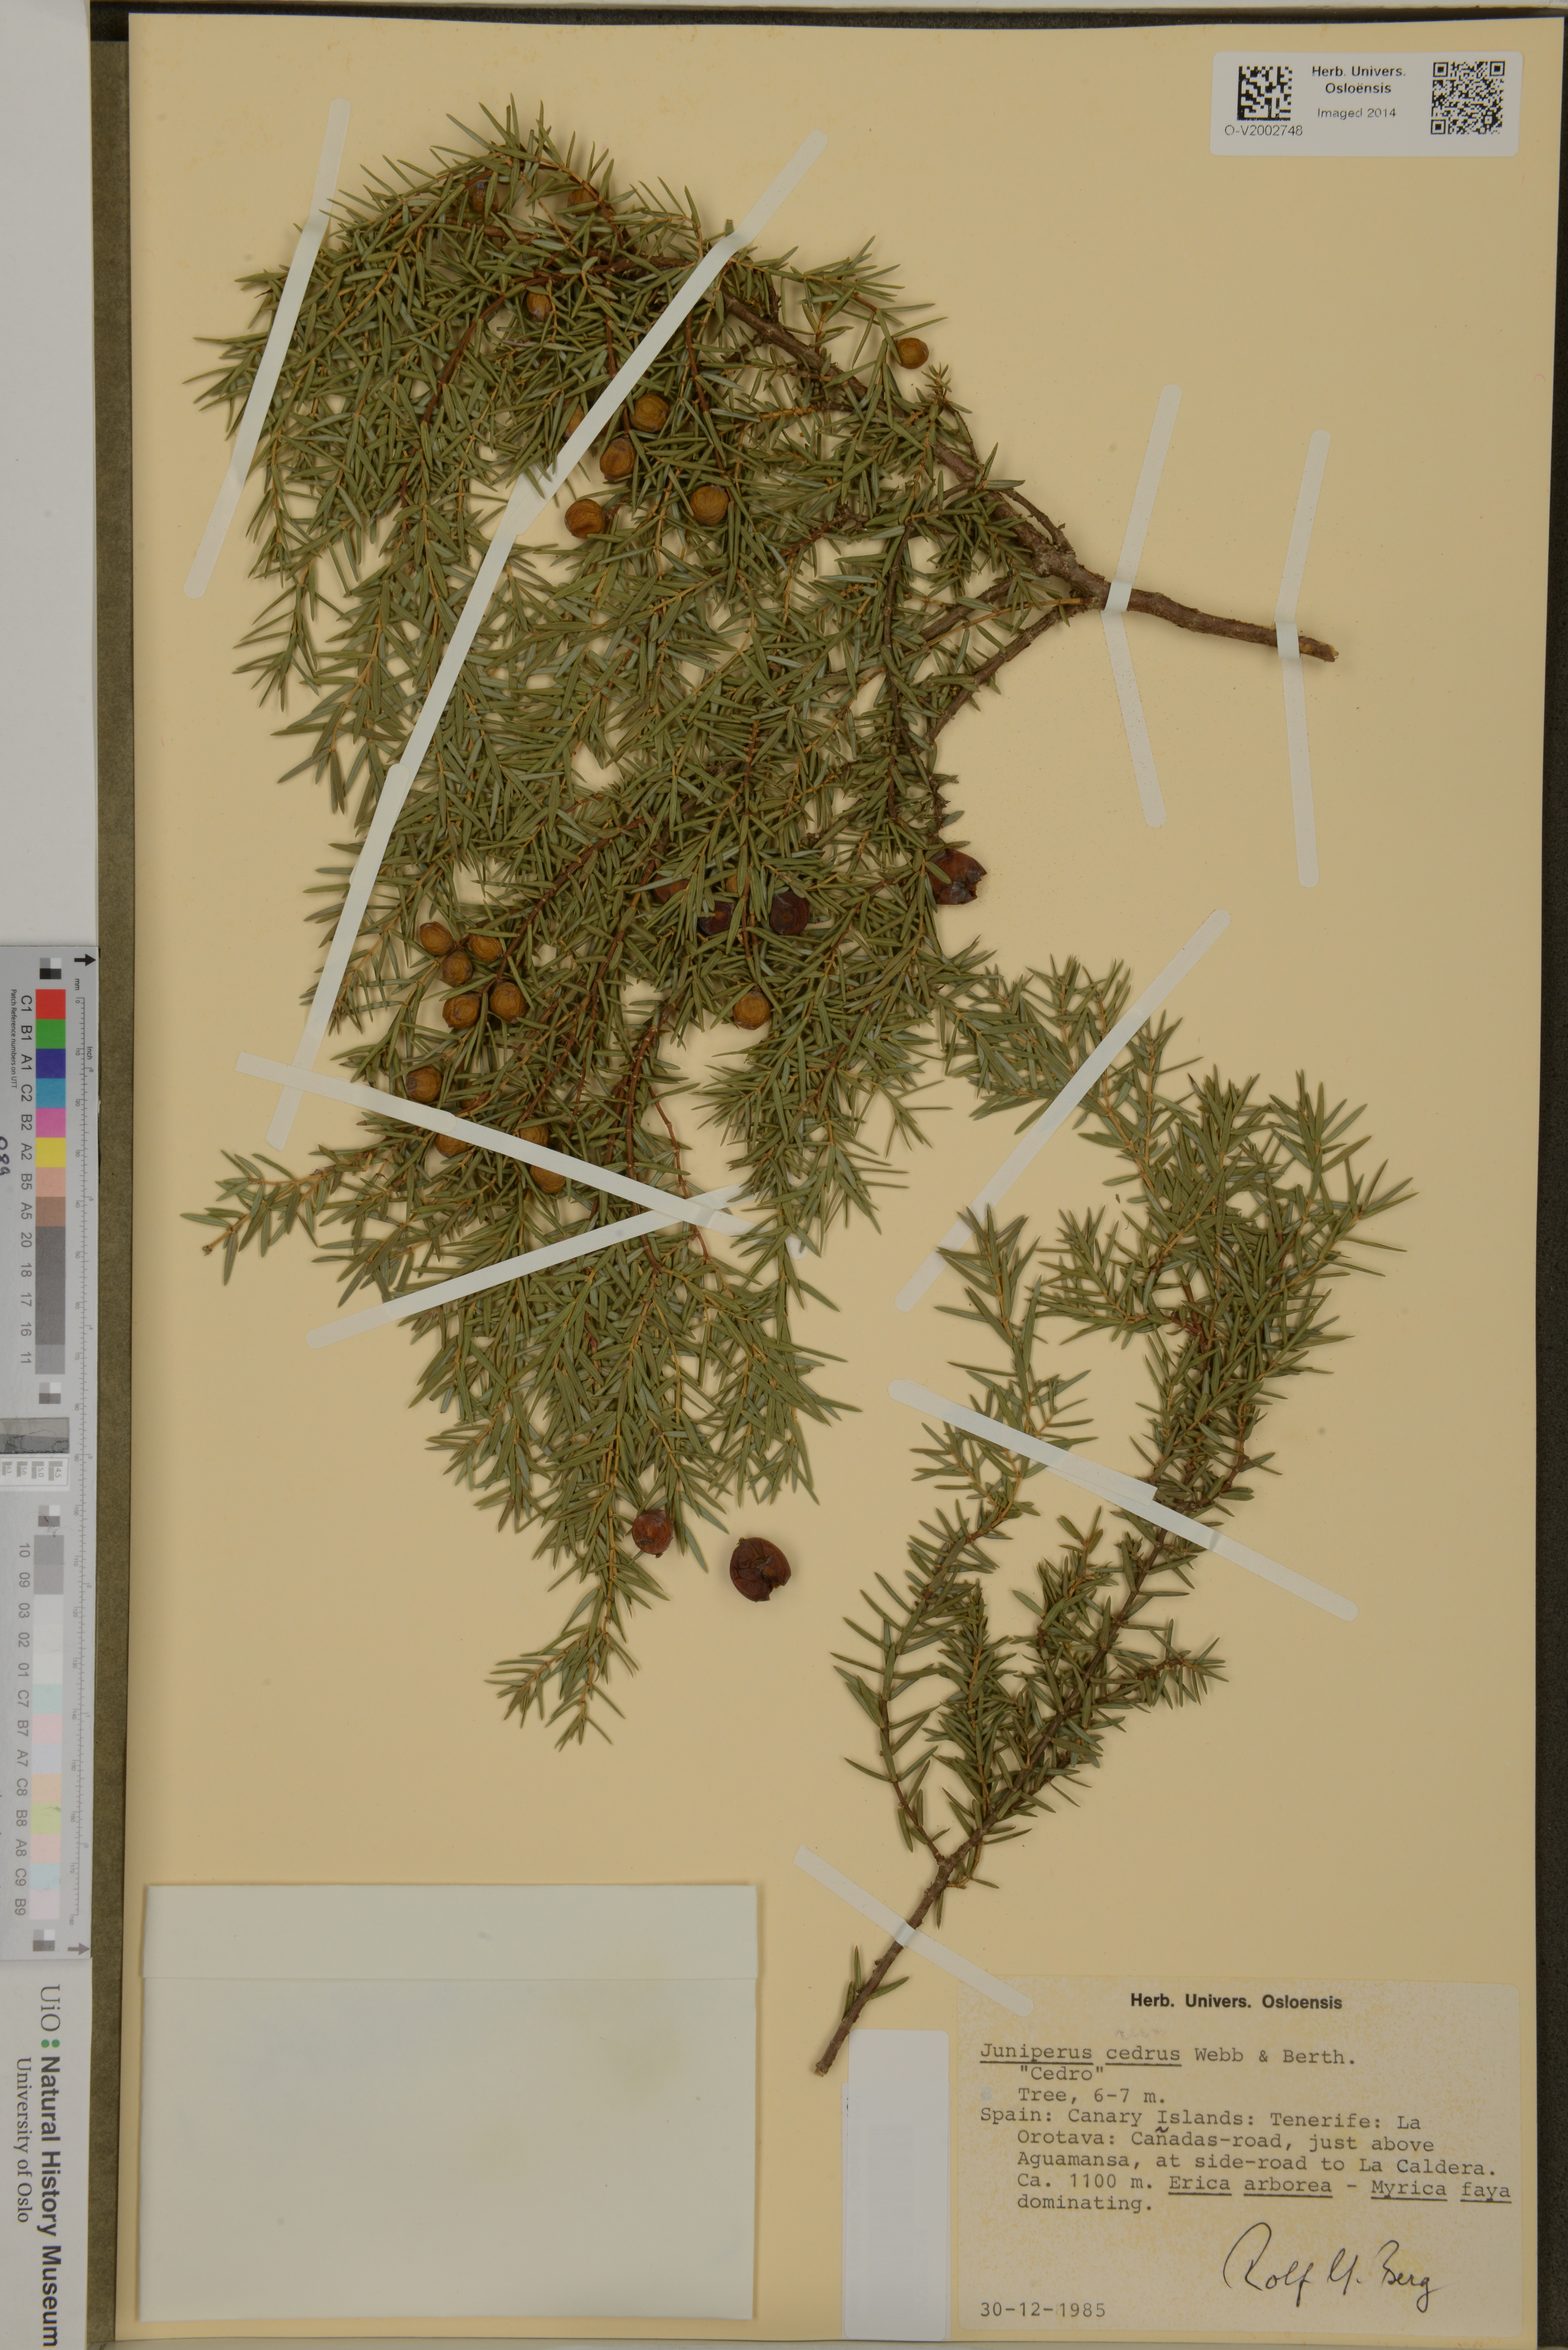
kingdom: Plantae
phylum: Tracheophyta
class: Pinopsida
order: Pinales
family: Cupressaceae
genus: Juniperus
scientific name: Juniperus cedrus
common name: Canary islands juniper
